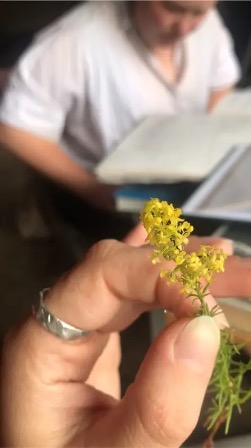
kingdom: Plantae
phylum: Tracheophyta
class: Magnoliopsida
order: Gentianales
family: Rubiaceae
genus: Galium
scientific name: Galium verum
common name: Gul snerre
